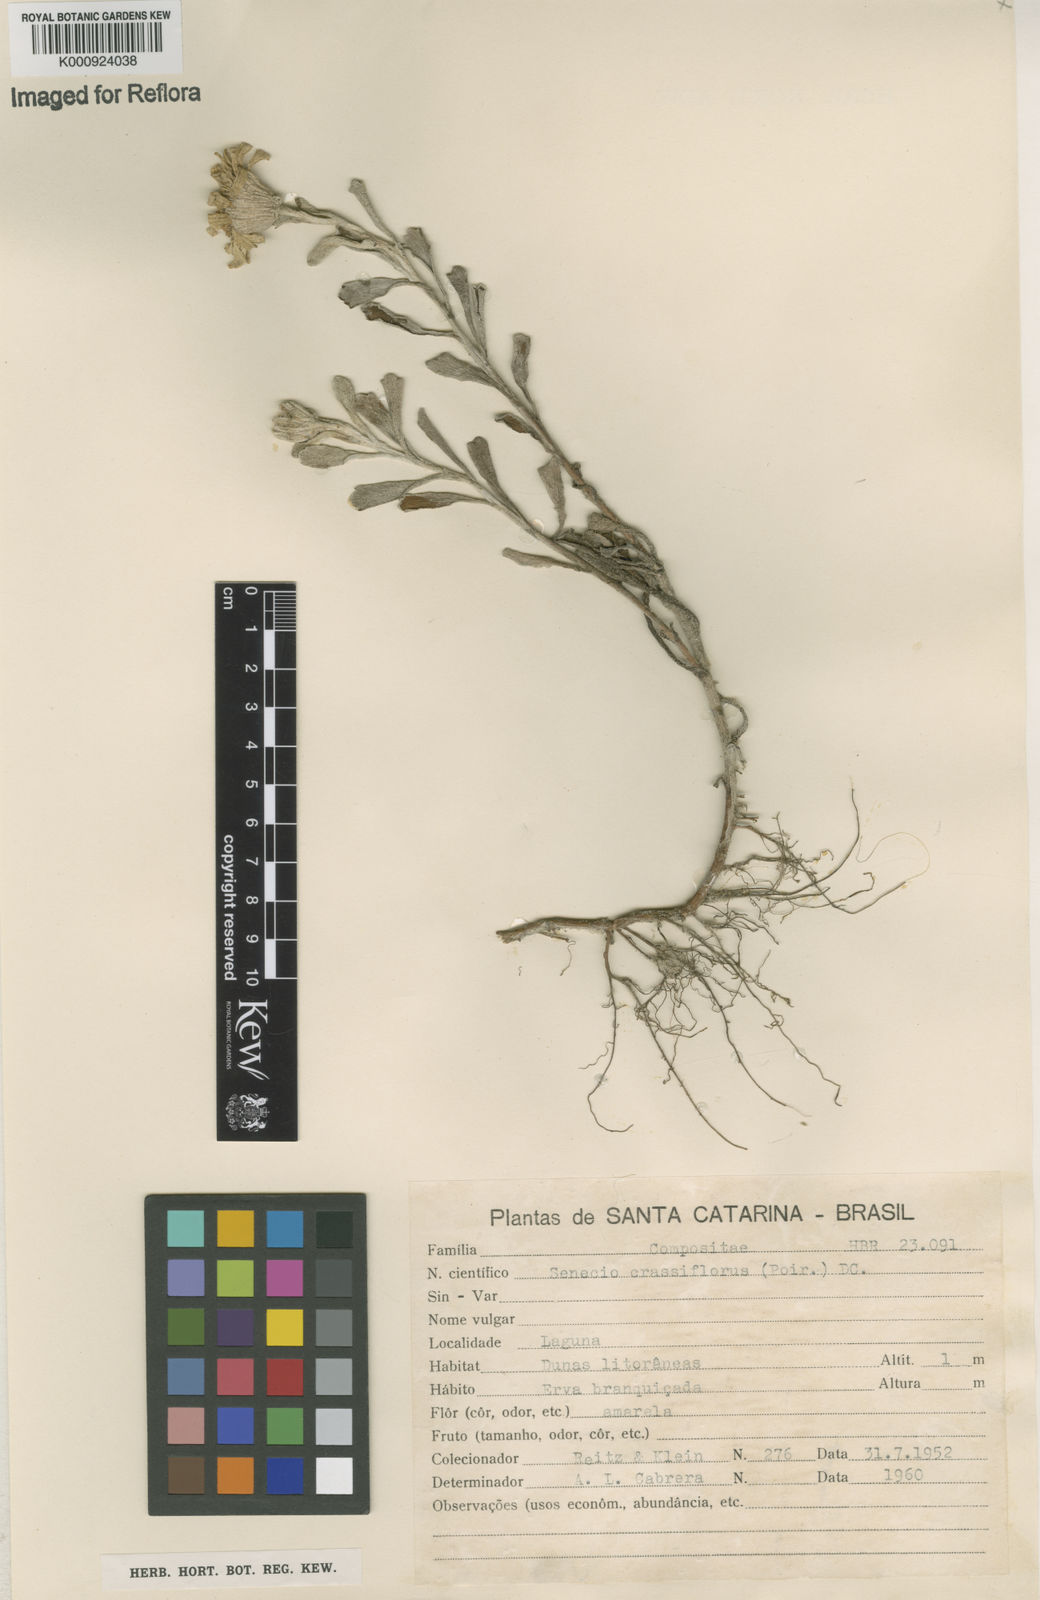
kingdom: Plantae
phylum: Tracheophyta
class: Magnoliopsida
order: Asterales
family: Asteraceae
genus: Senecio
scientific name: Senecio crassiflorus
